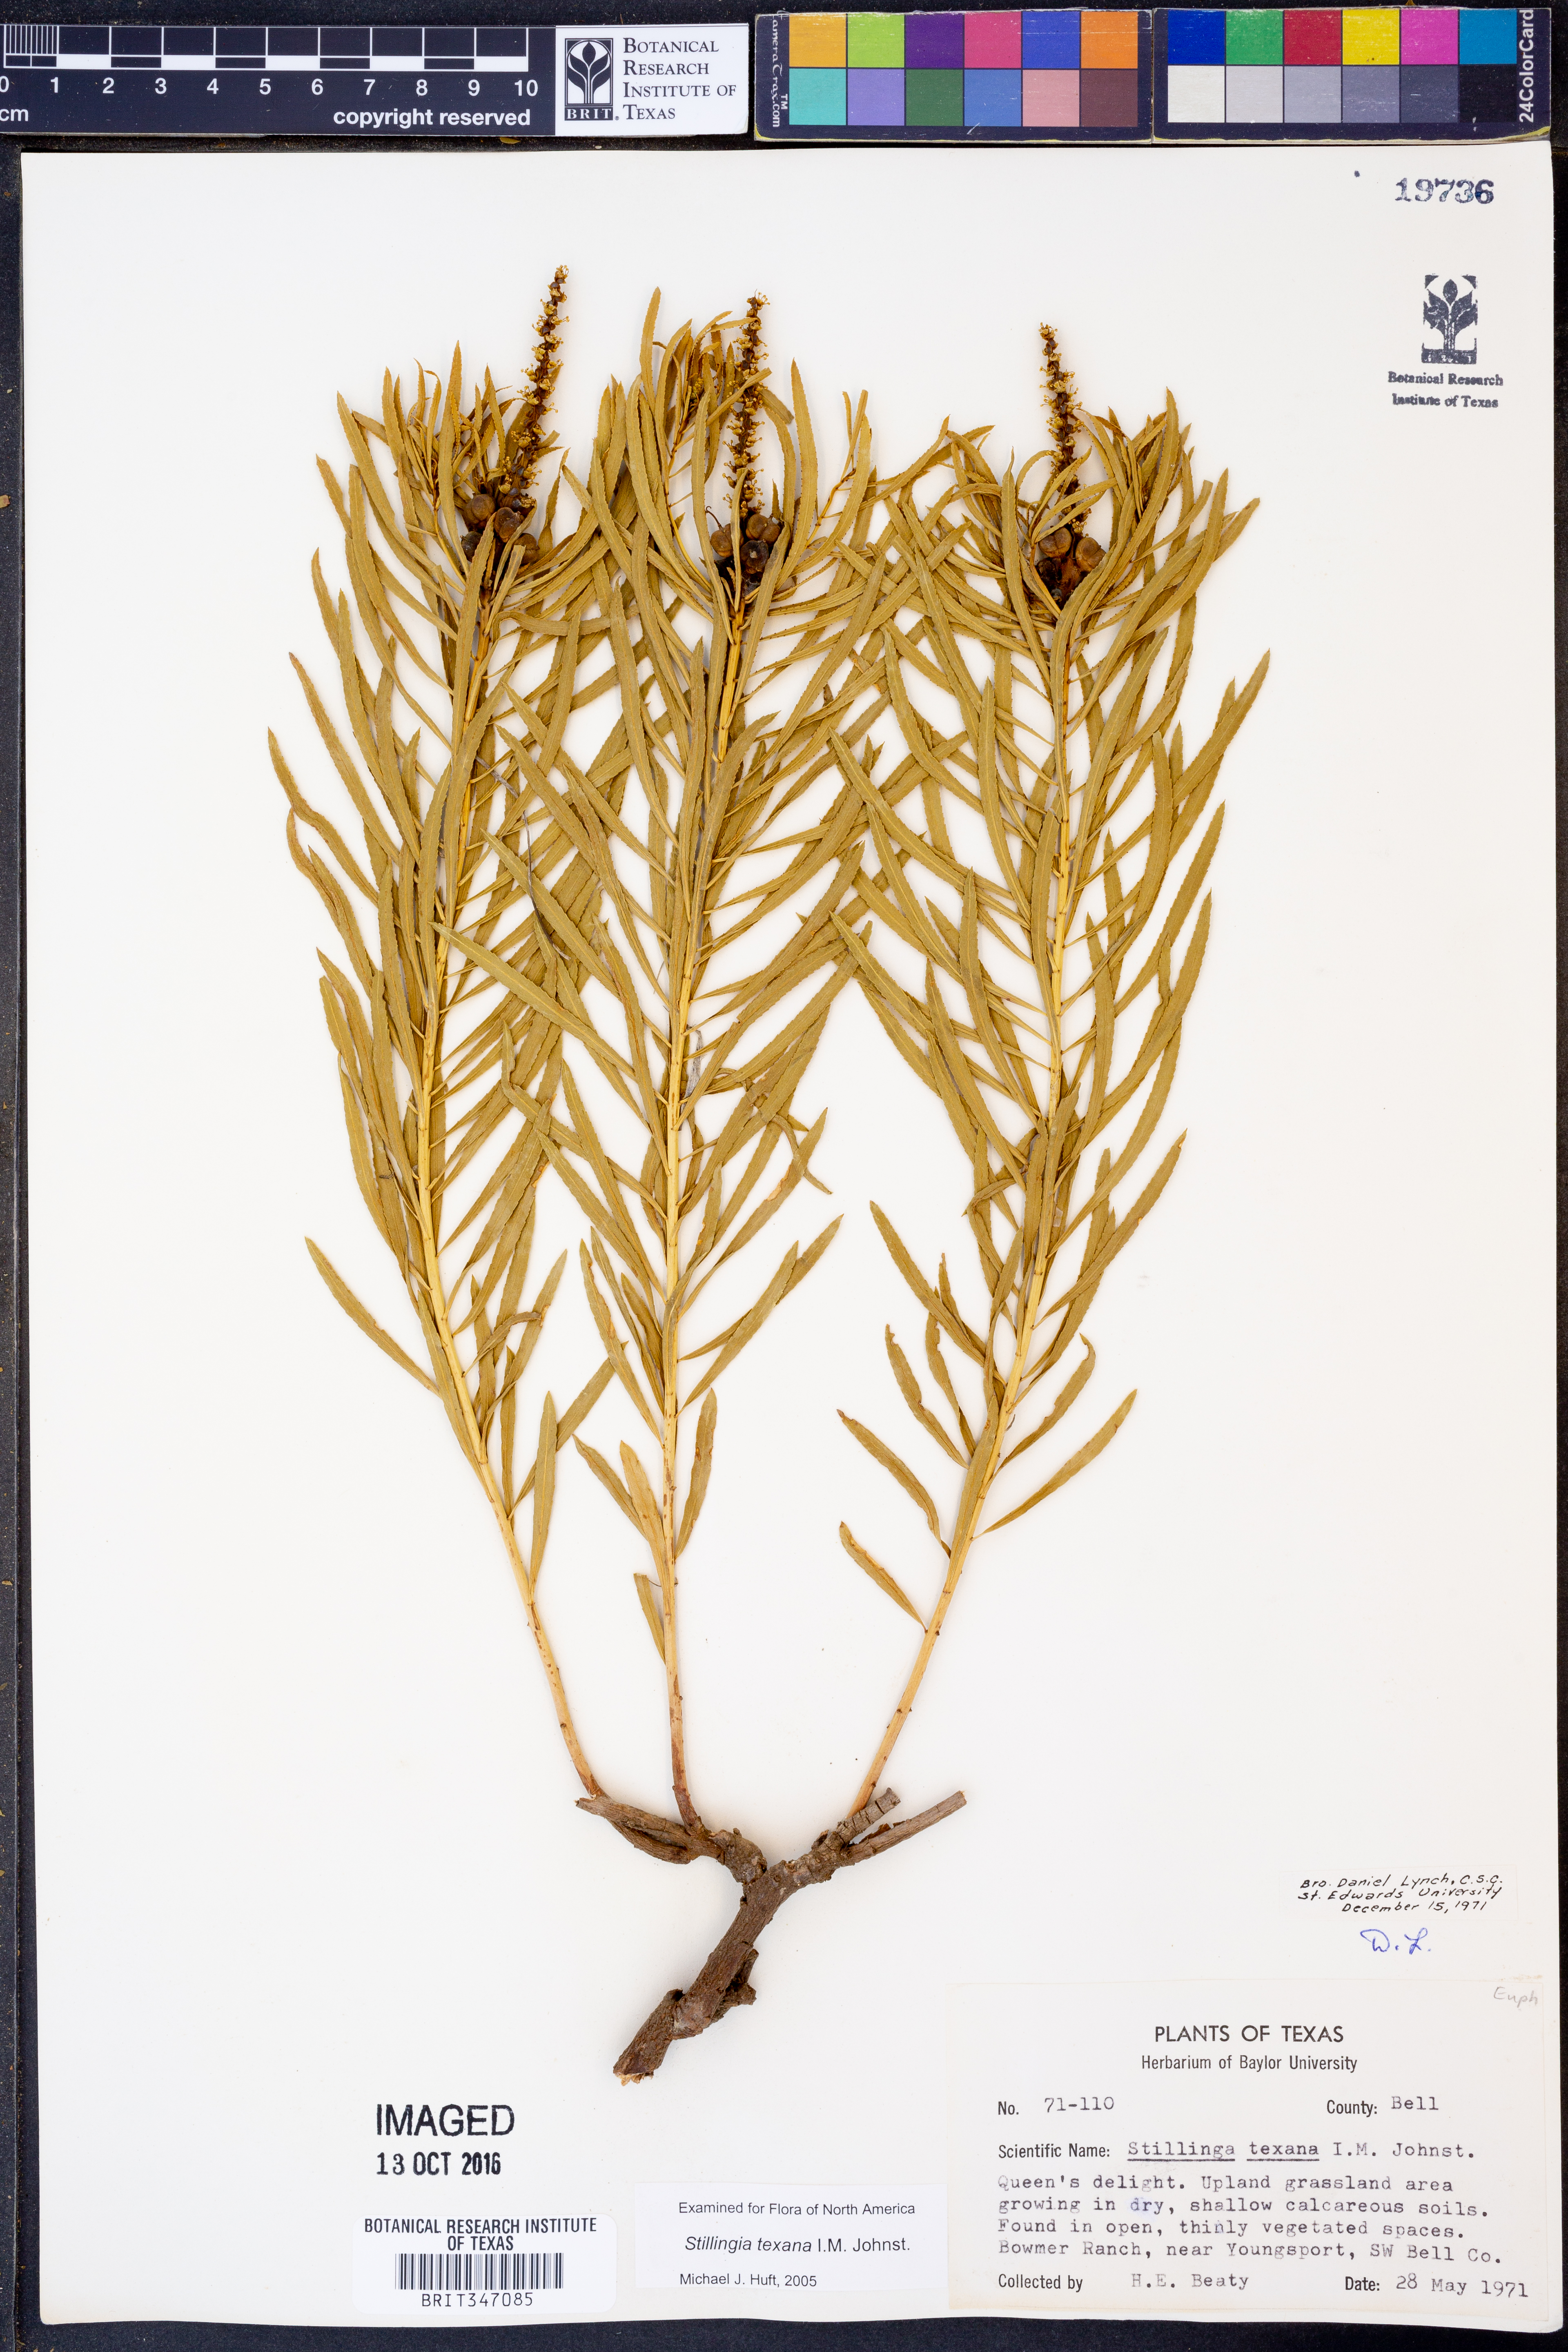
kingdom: Plantae
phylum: Tracheophyta
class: Magnoliopsida
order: Malpighiales
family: Euphorbiaceae
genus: Stillingia
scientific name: Stillingia texana
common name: Texas stillingia
